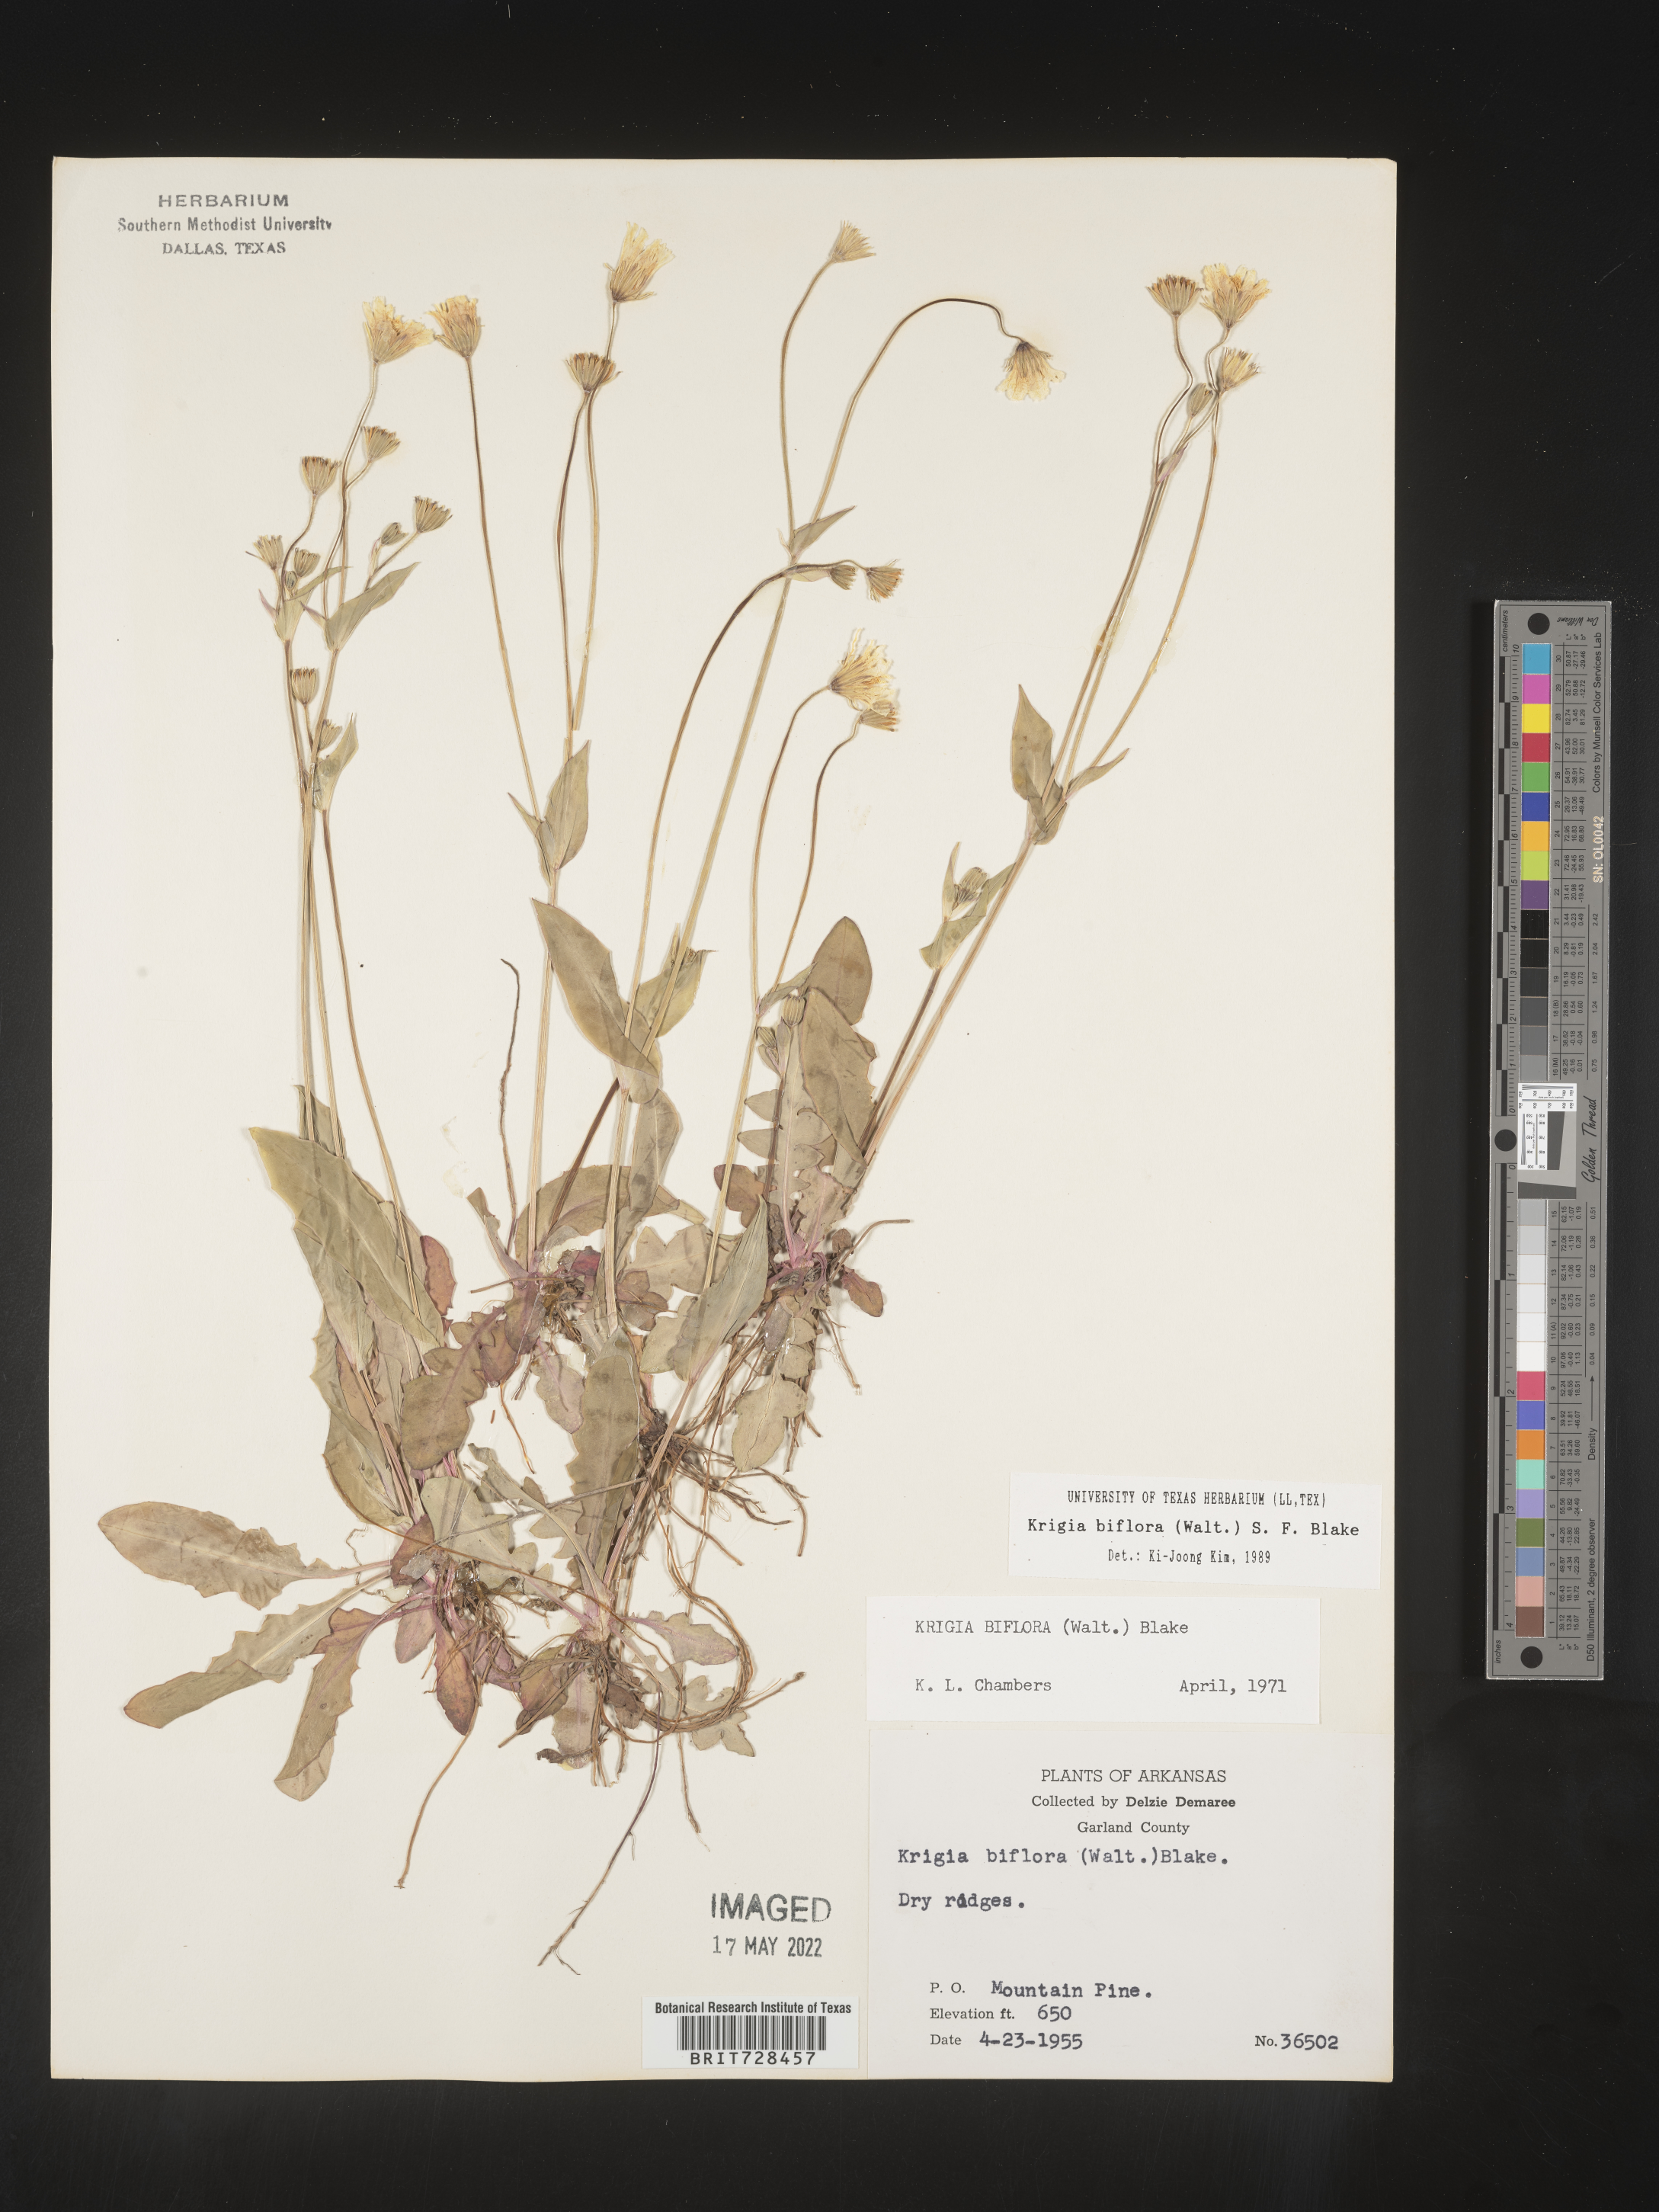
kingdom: Plantae
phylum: Tracheophyta
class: Magnoliopsida
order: Asterales
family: Asteraceae
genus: Krigia
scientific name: Krigia biflora
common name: Orange dwarf-dandelion
